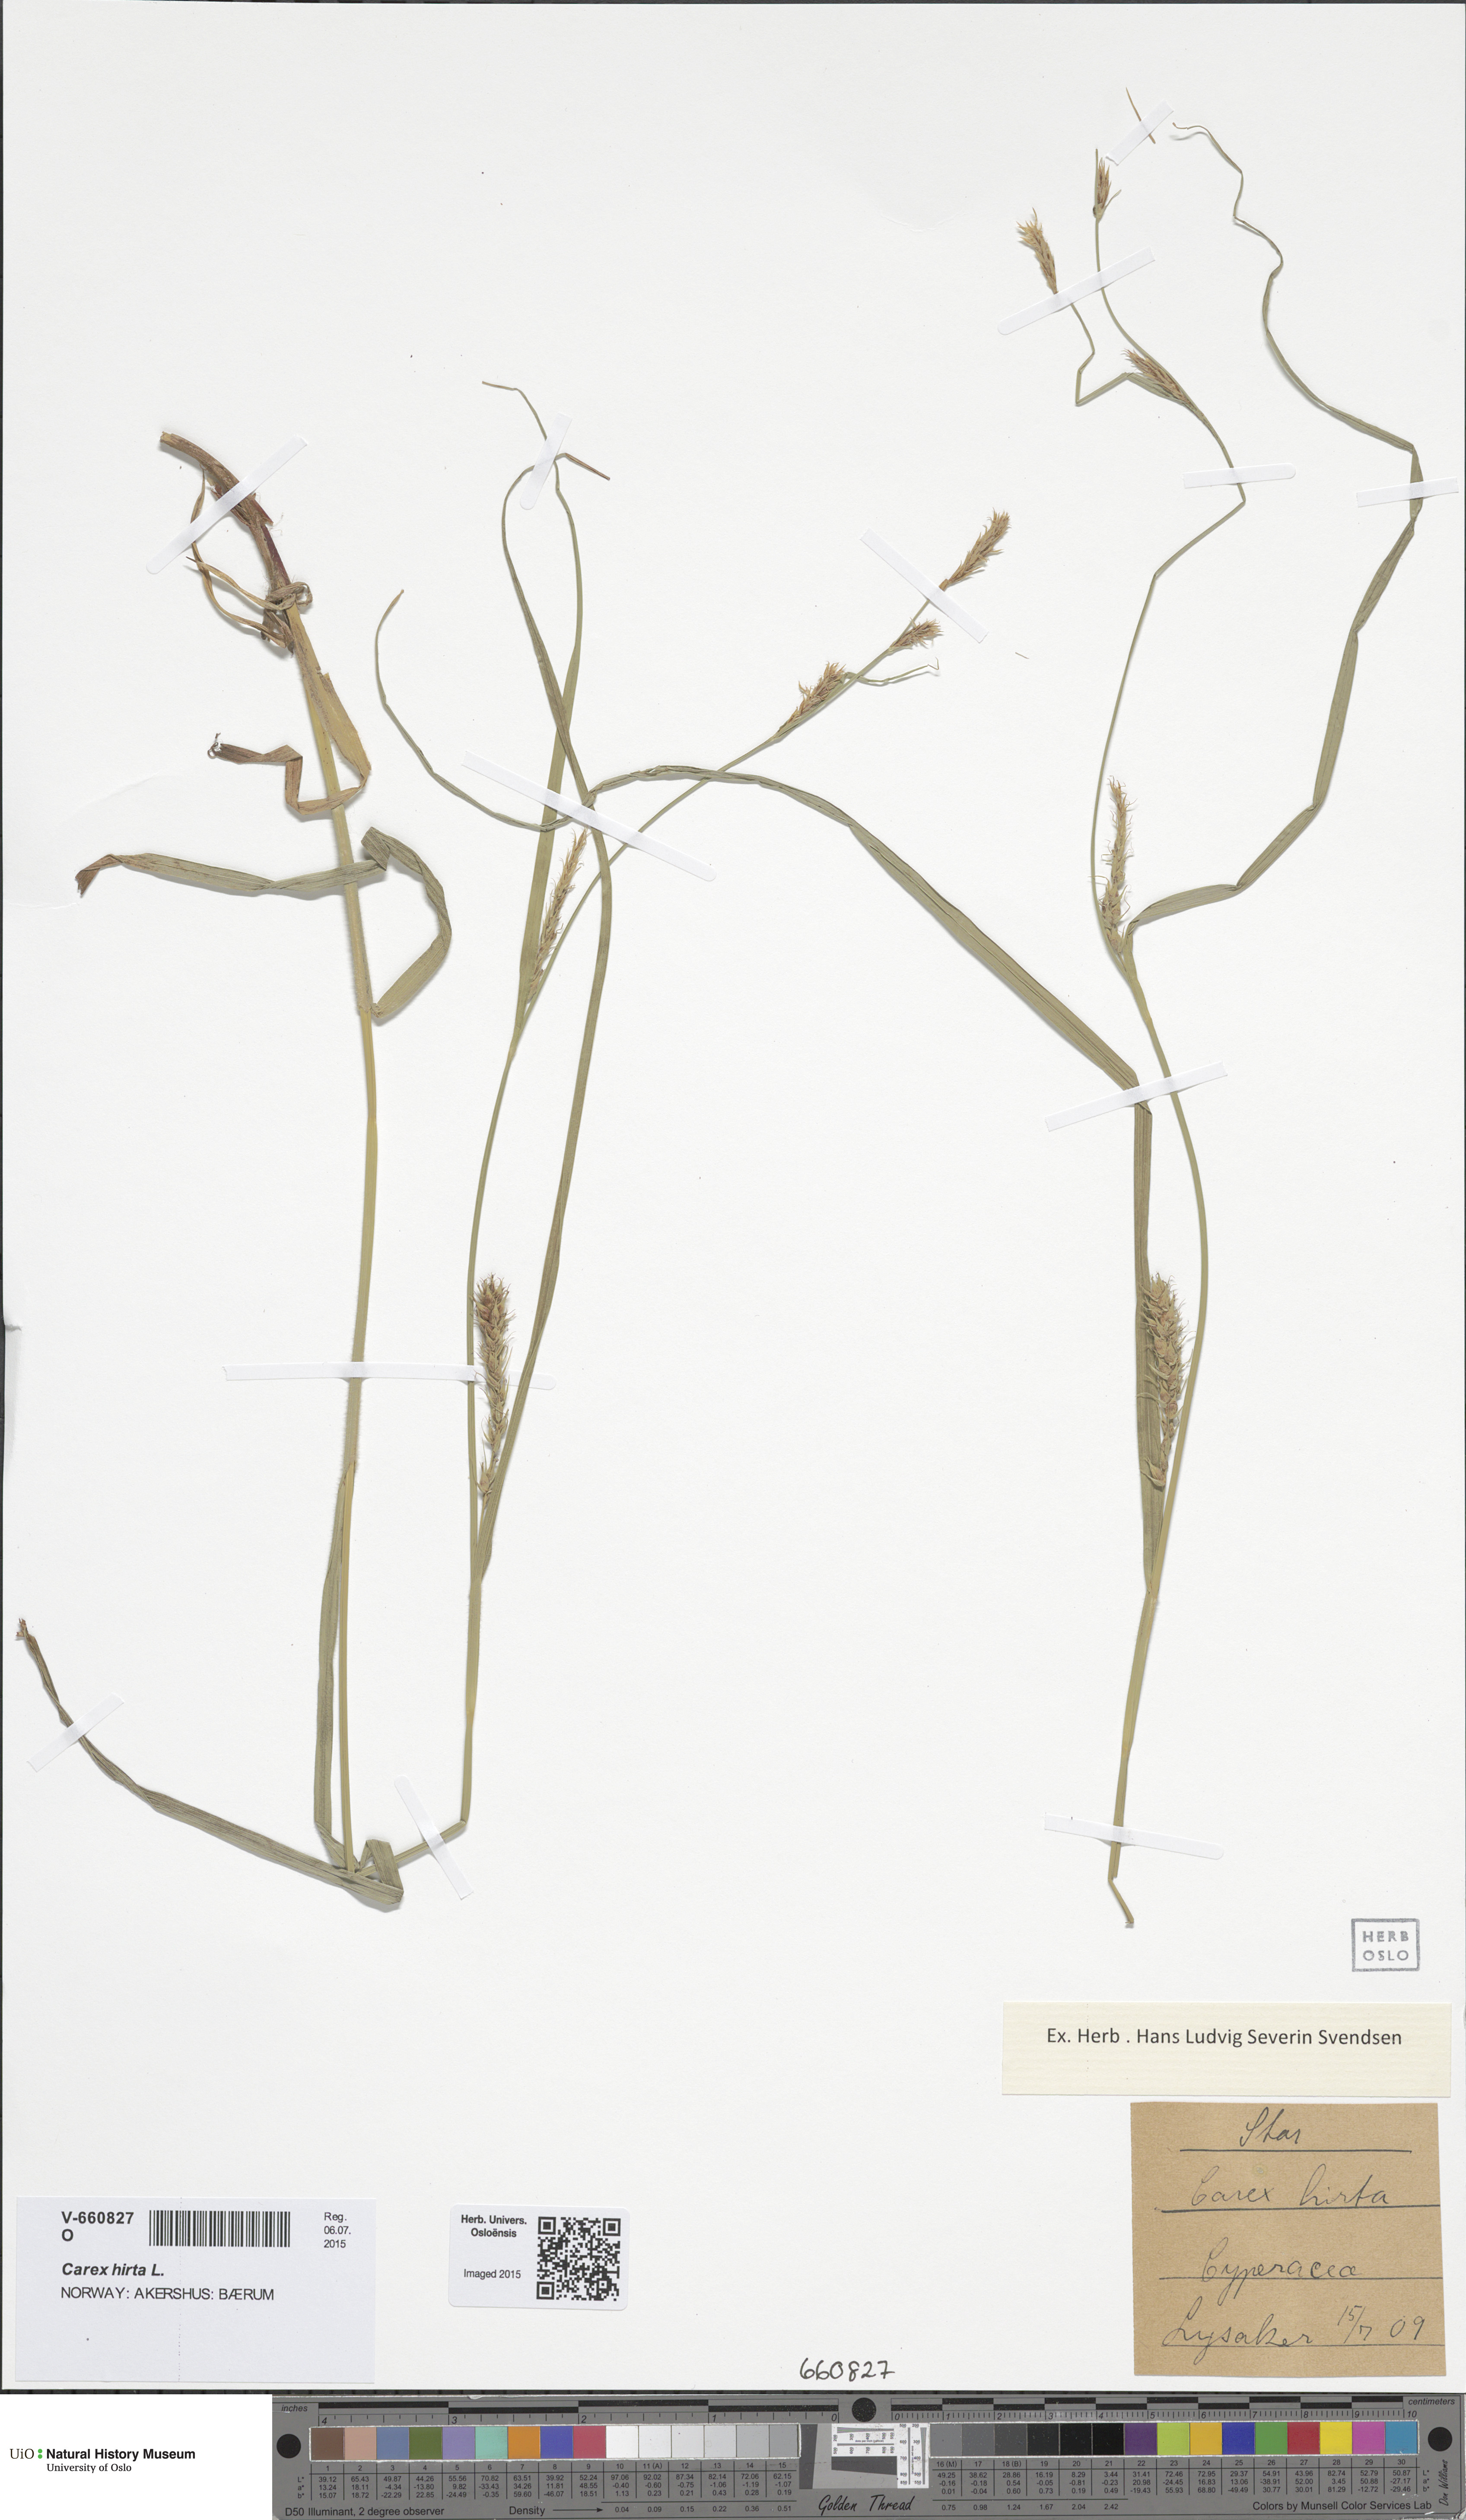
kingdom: Plantae
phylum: Tracheophyta
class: Liliopsida
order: Poales
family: Cyperaceae
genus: Carex
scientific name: Carex hirta
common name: Hairy sedge
